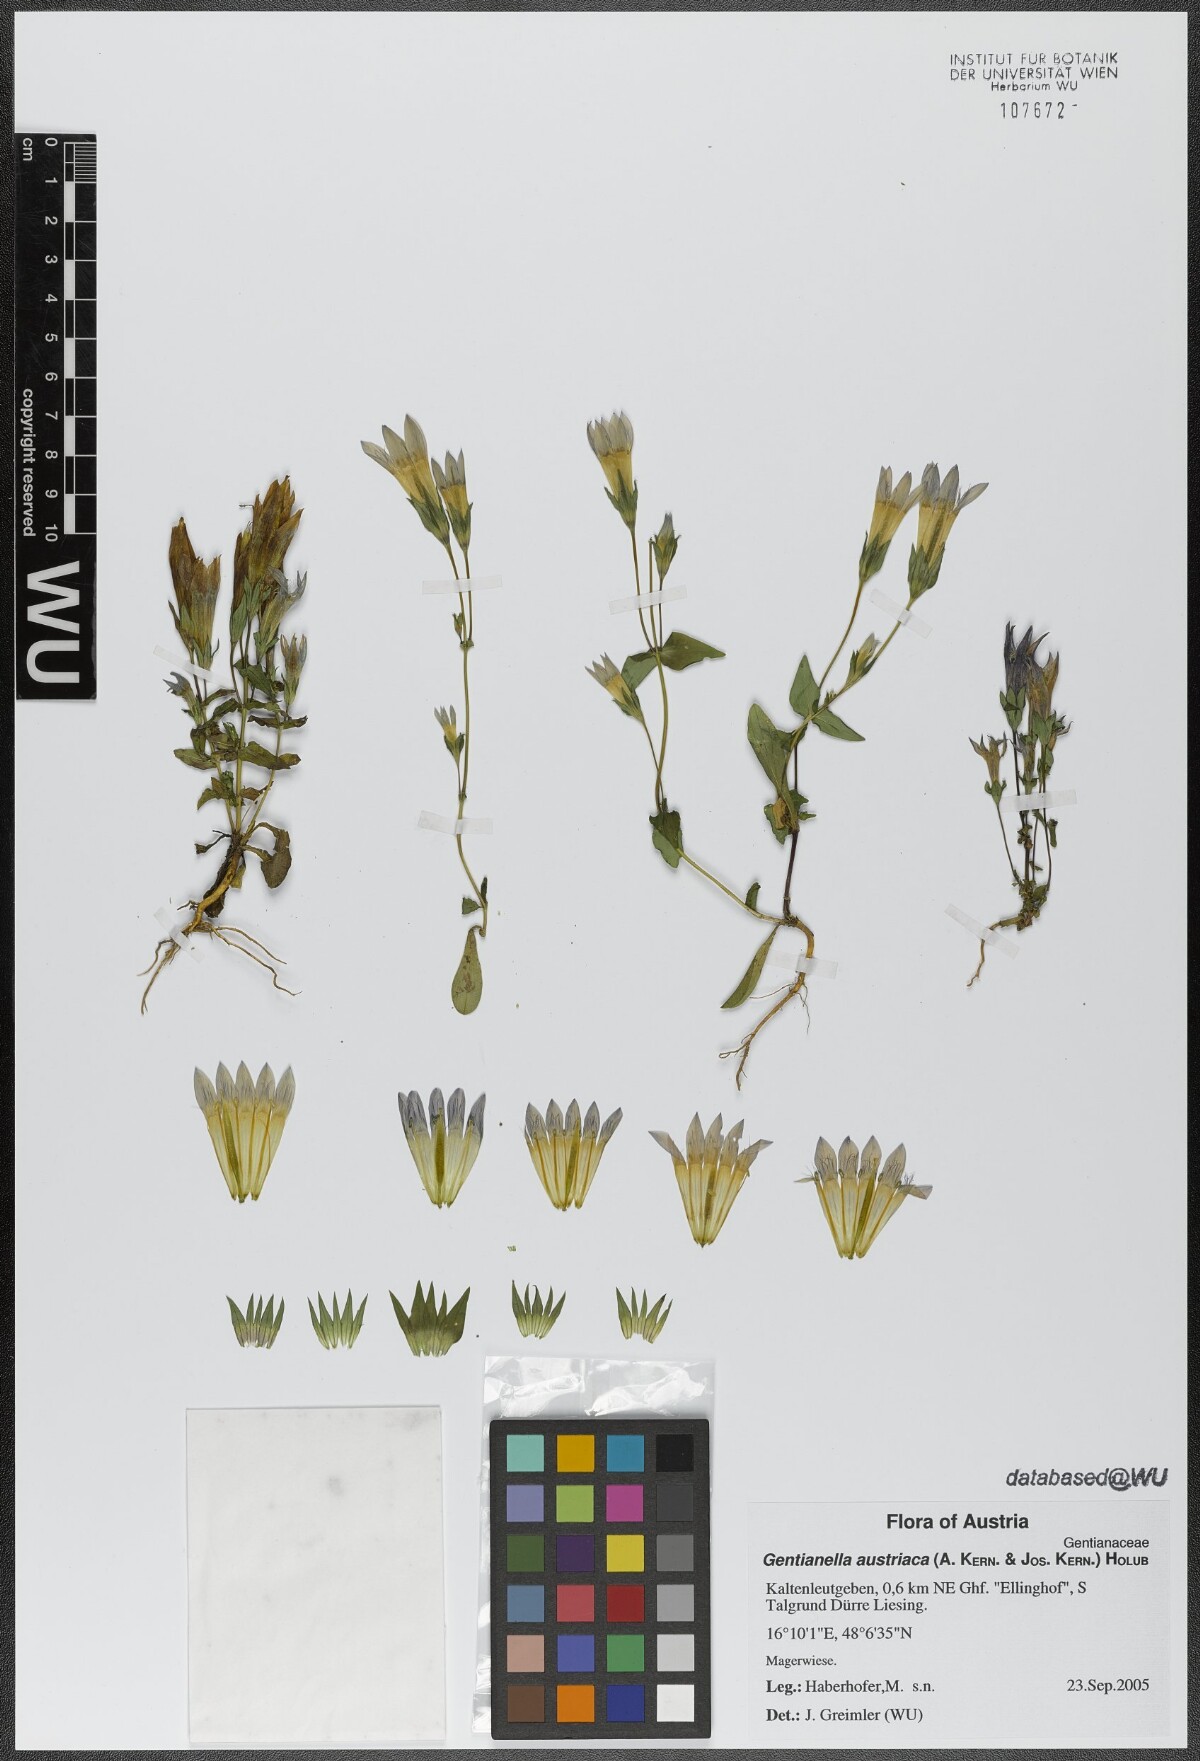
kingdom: Plantae
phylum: Tracheophyta
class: Magnoliopsida
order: Gentianales
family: Gentianaceae
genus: Gentianella
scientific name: Gentianella austriaca
